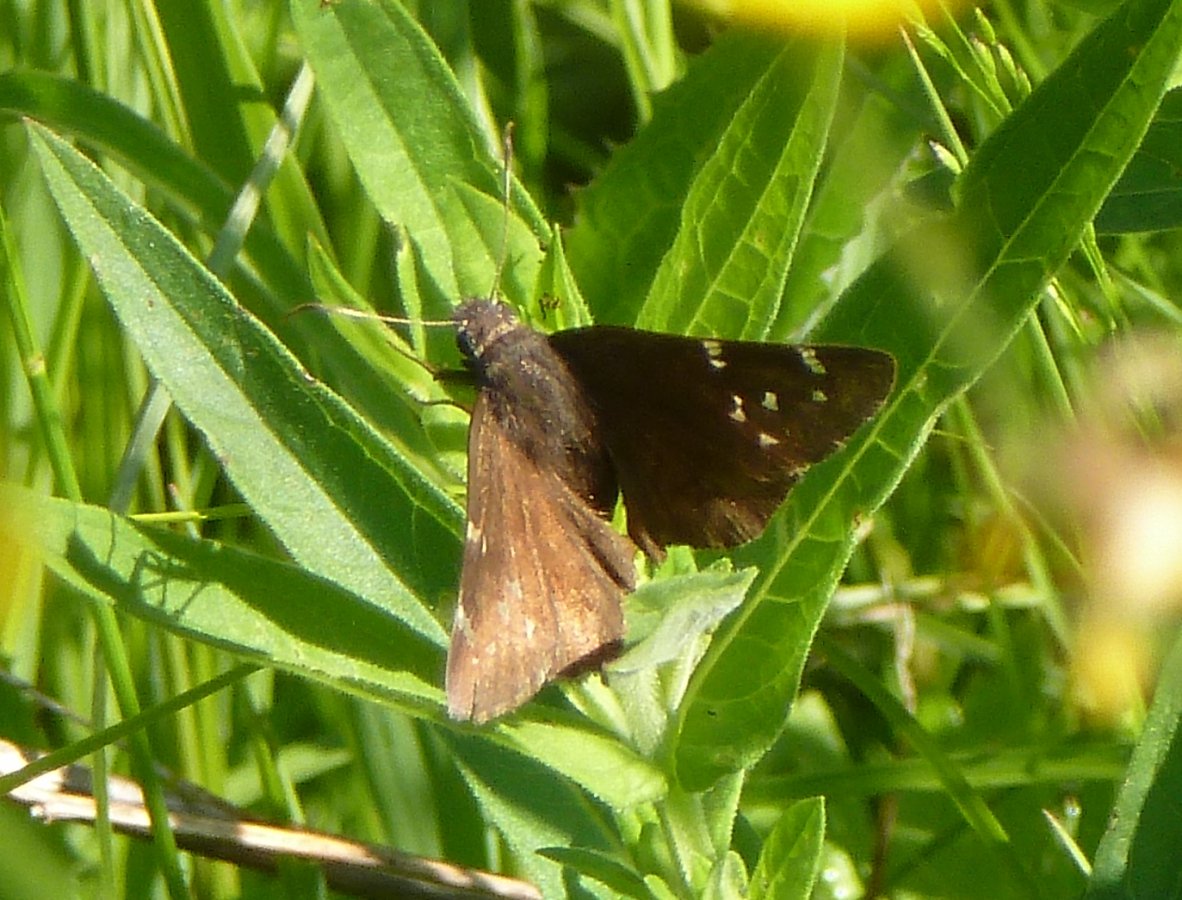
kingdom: Animalia
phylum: Arthropoda
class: Insecta
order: Lepidoptera
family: Hesperiidae
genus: Autochton
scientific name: Autochton
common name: Northern Cloudywing
